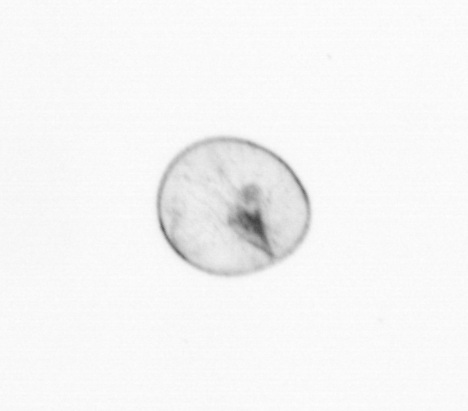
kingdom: Chromista
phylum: Myzozoa
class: Dinophyceae
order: Noctilucales
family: Noctilucaceae
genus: Noctiluca
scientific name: Noctiluca scintillans
